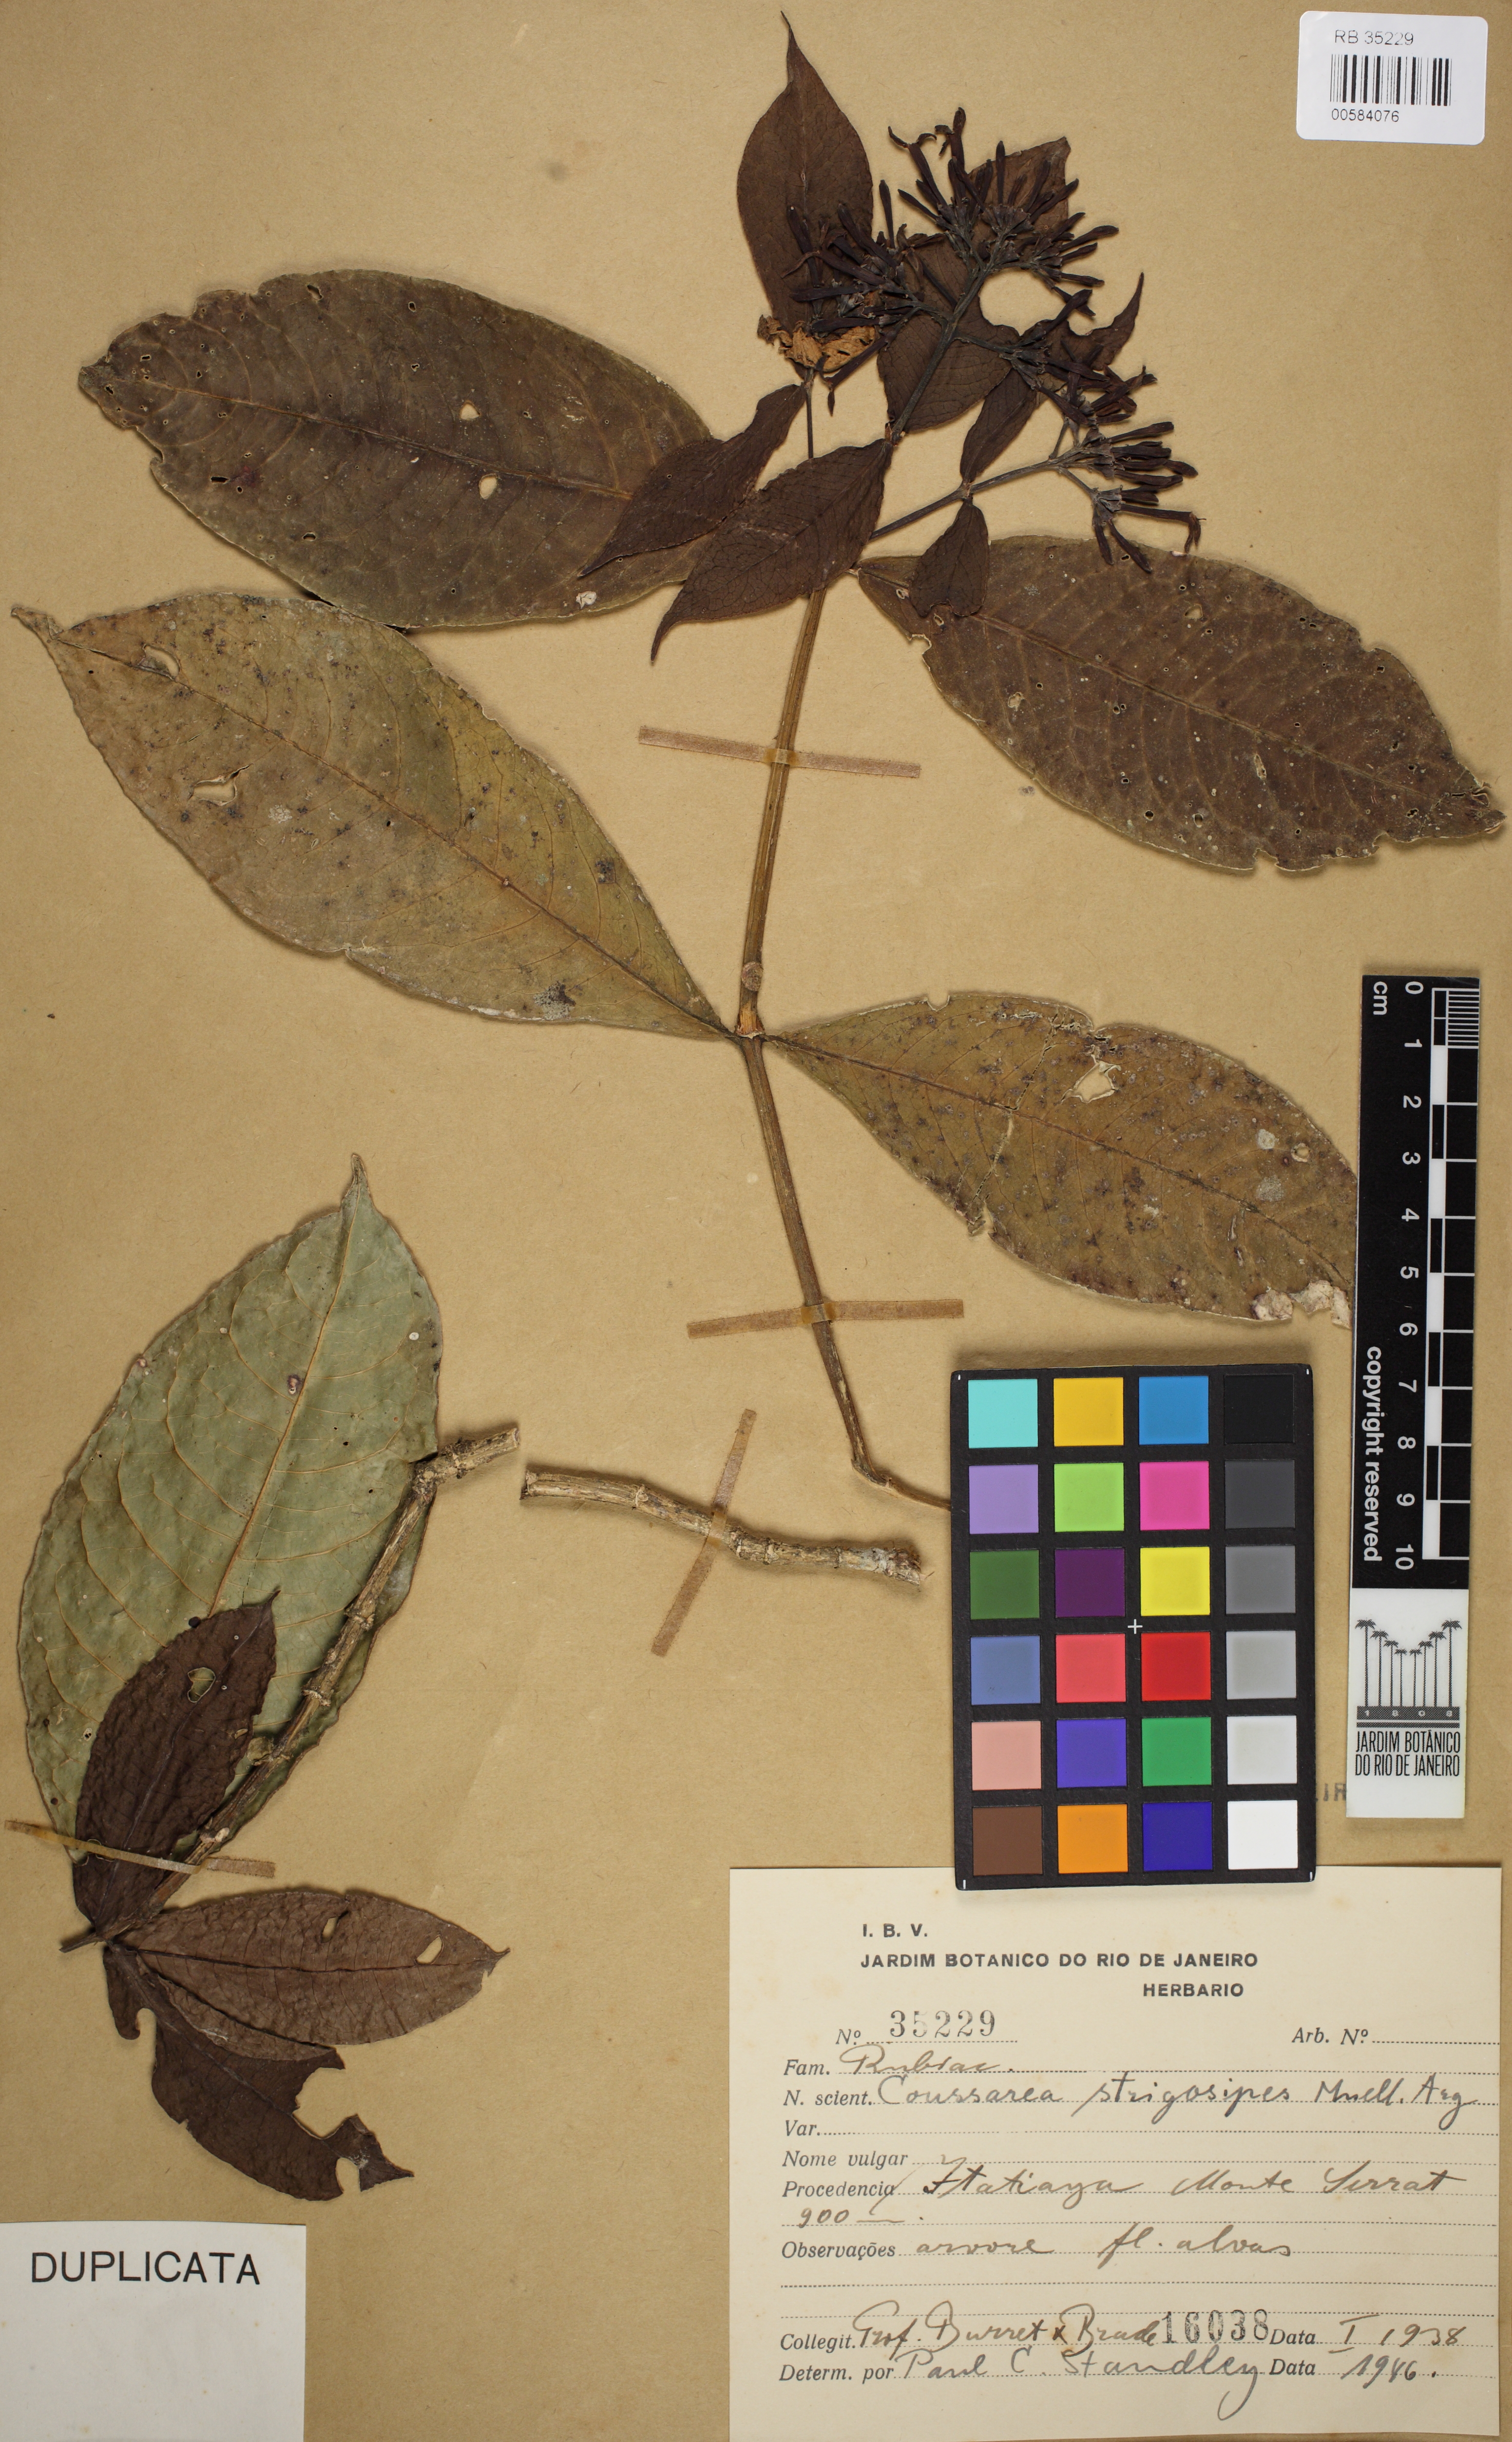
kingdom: Plantae
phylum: Tracheophyta
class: Magnoliopsida
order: Gentianales
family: Rubiaceae
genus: Coussarea
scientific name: Coussarea strigosipes
